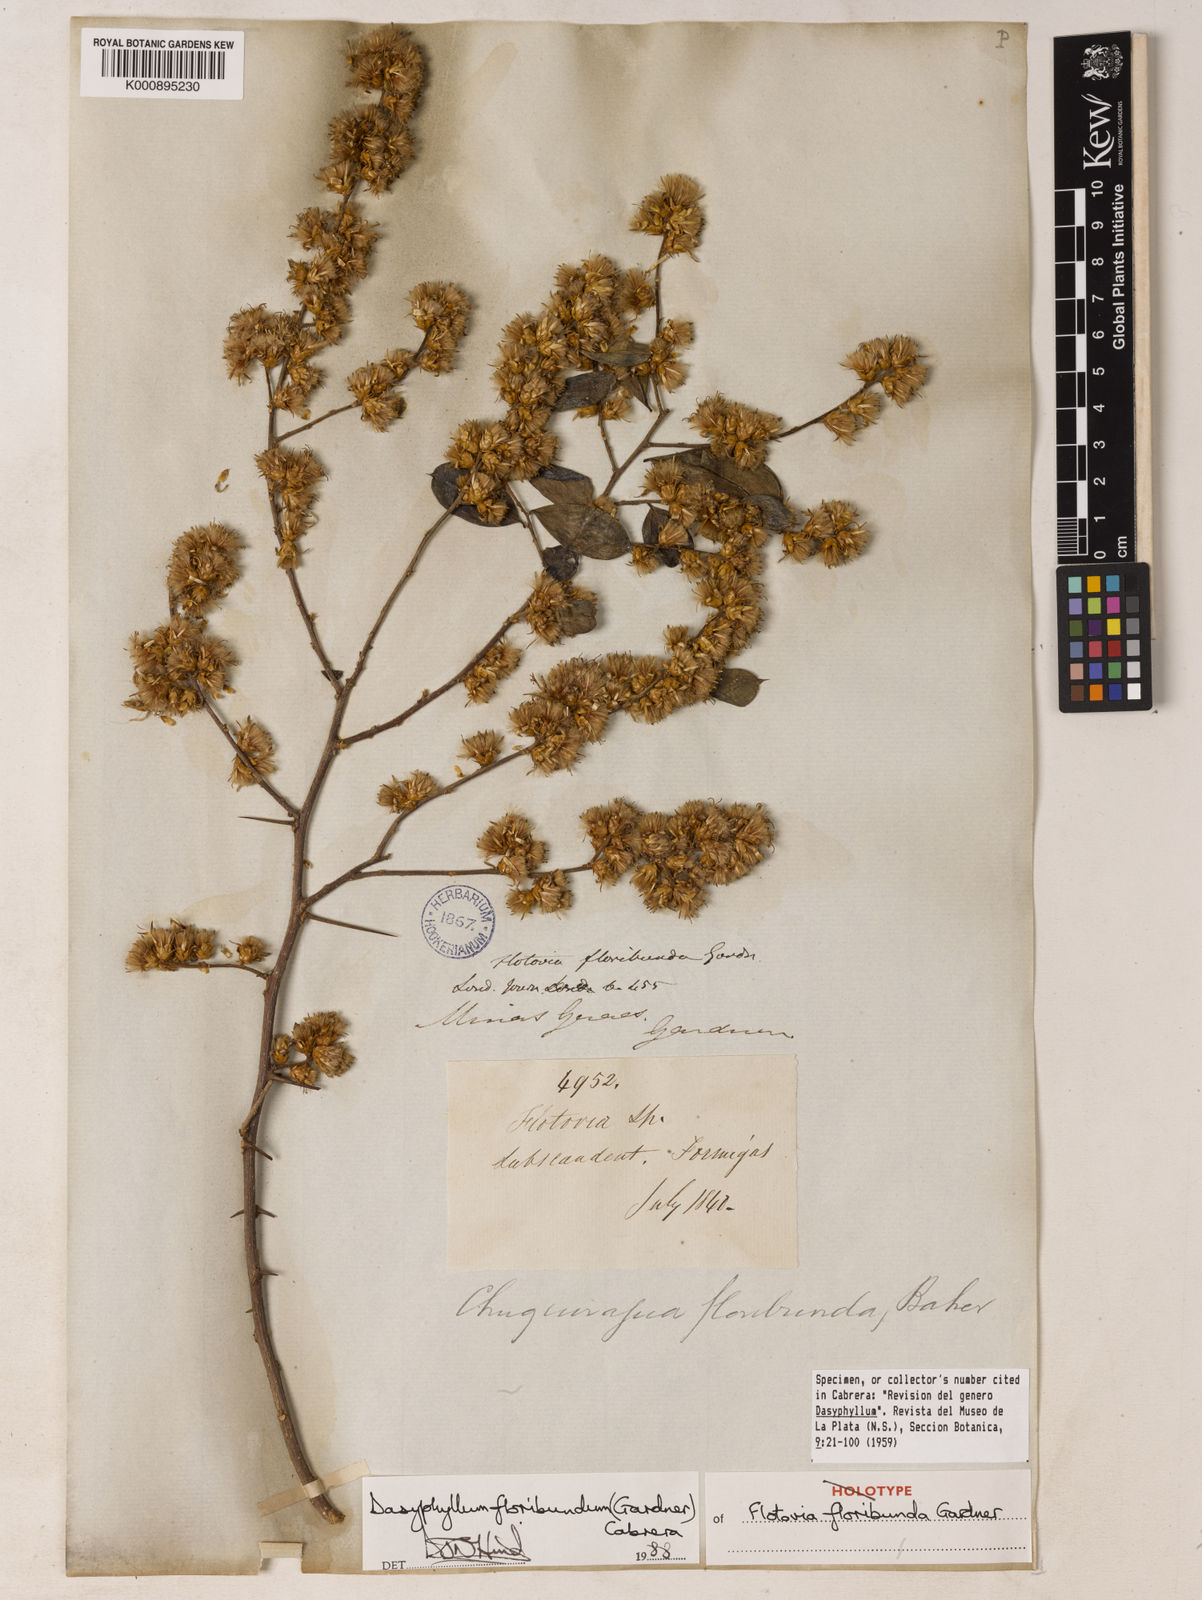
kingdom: Plantae
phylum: Tracheophyta
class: Magnoliopsida
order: Asterales
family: Asteraceae
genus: Dasyphyllum
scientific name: Dasyphyllum floribundum
